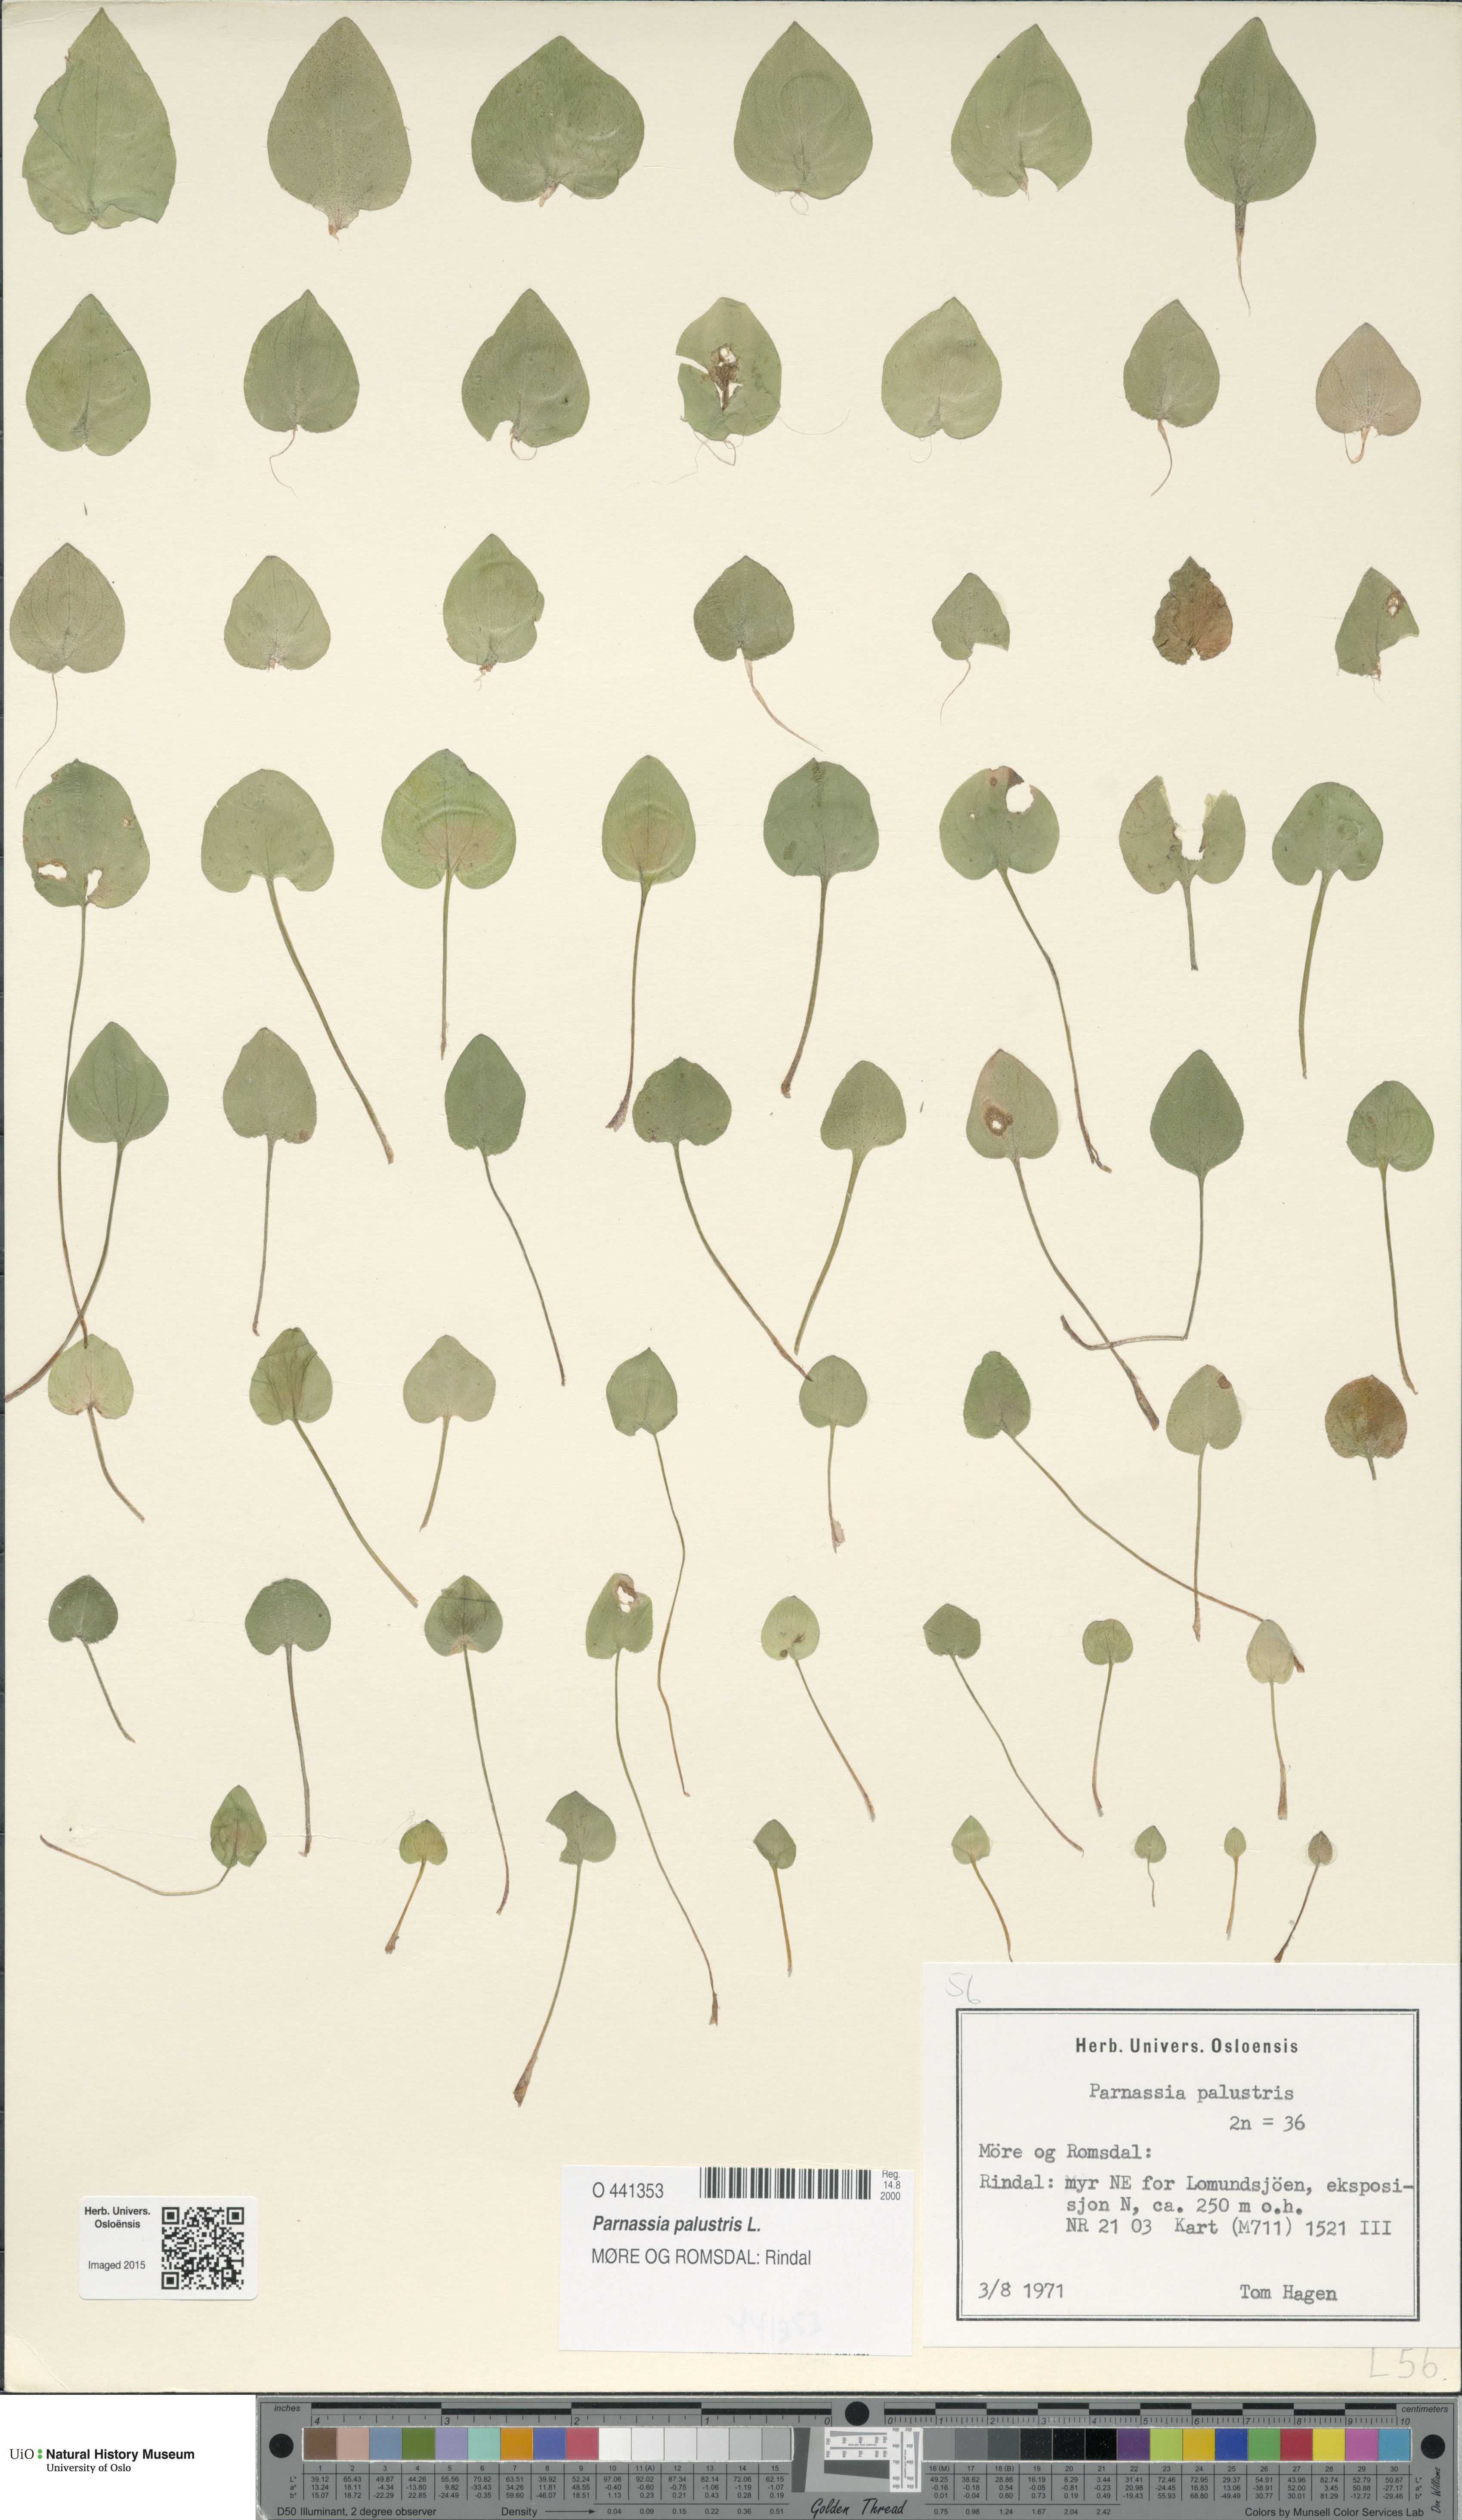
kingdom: Plantae
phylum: Tracheophyta
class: Magnoliopsida
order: Celastrales
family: Parnassiaceae
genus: Parnassia
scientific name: Parnassia palustris
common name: Grass-of-parnassus
